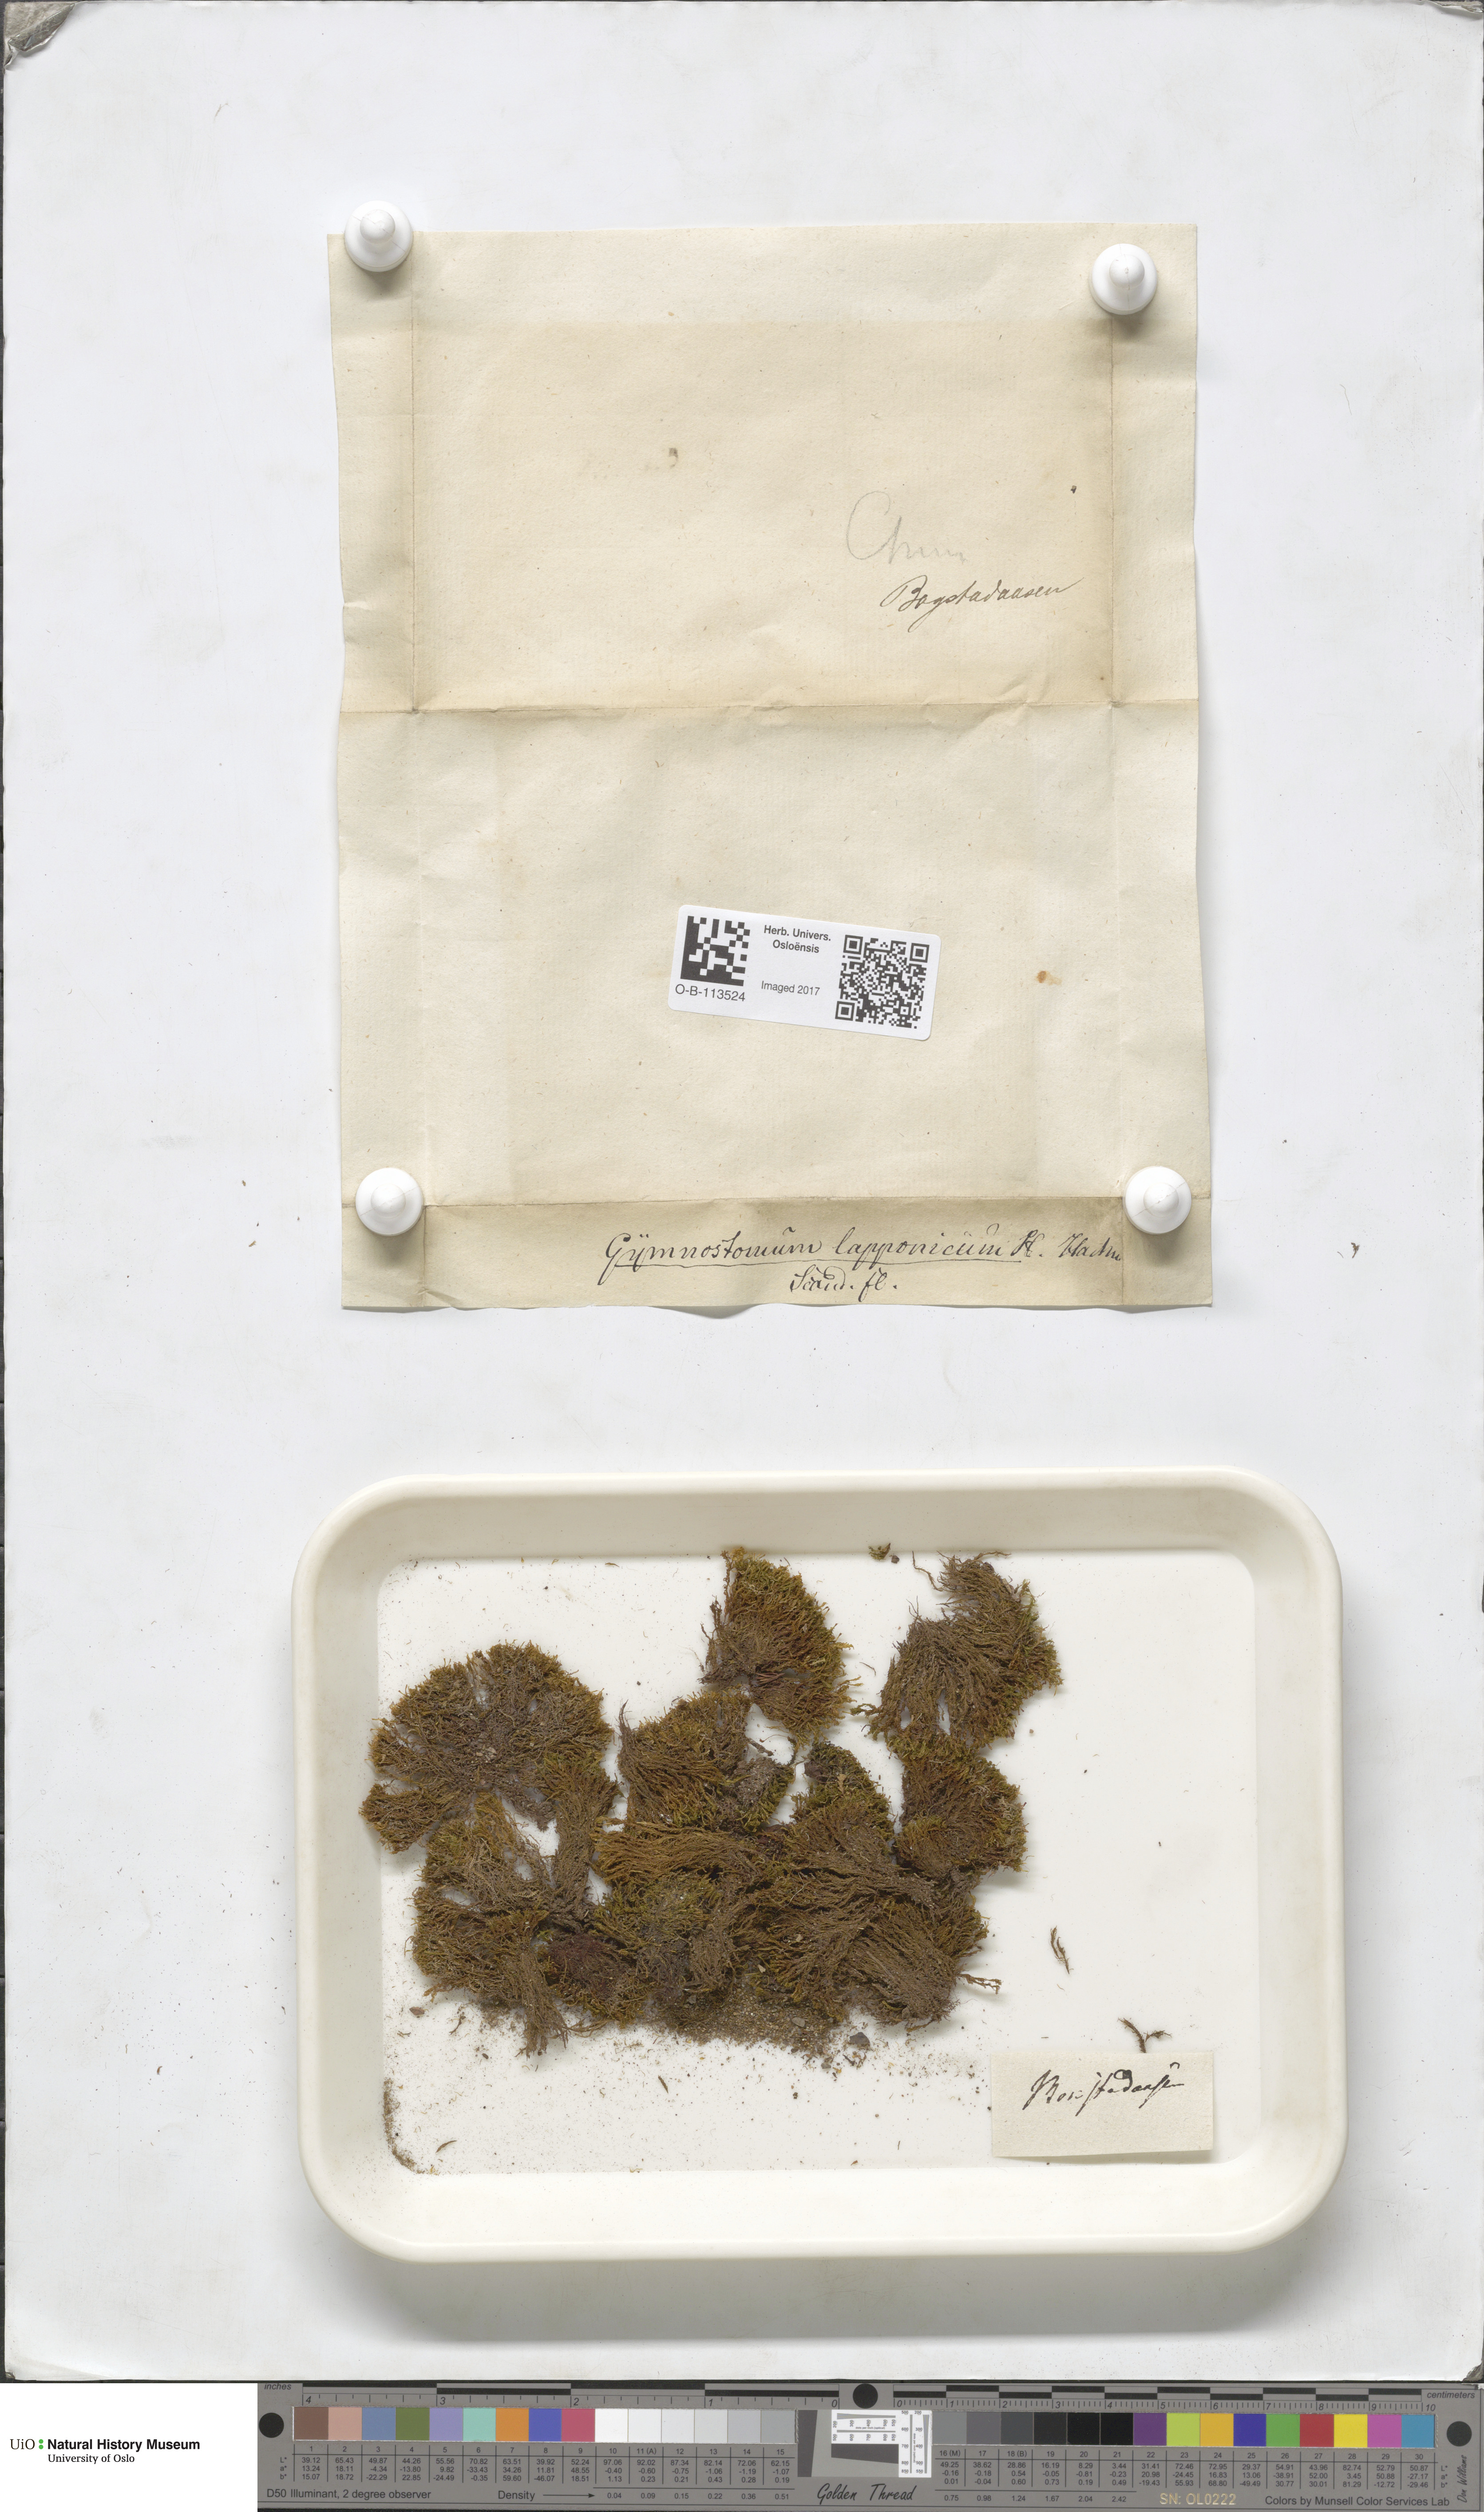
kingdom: Plantae
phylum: Bryophyta
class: Bryopsida
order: Dicranales
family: Amphidiaceae
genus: Amphidium
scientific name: Amphidium lapponicum
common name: Lapland yoke moss
